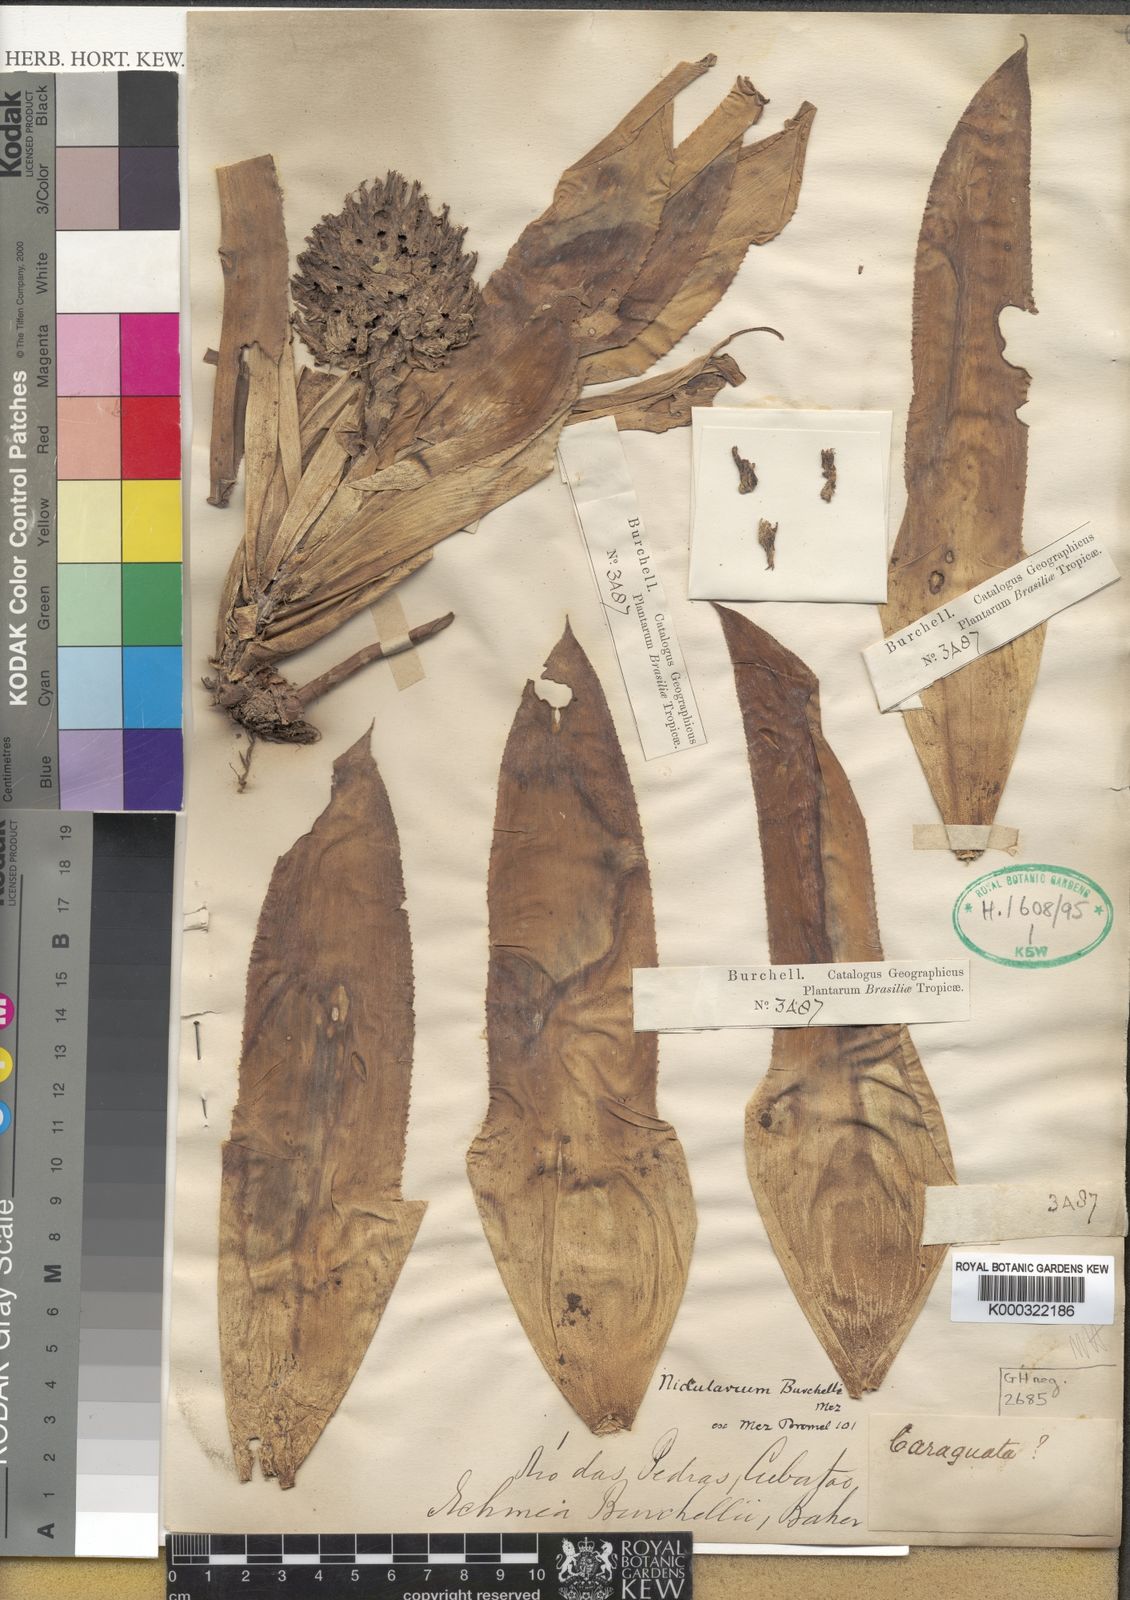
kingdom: Plantae
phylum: Tracheophyta
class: Liliopsida
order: Poales
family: Bromeliaceae
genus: Canistropsis
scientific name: Canistropsis burchellii
